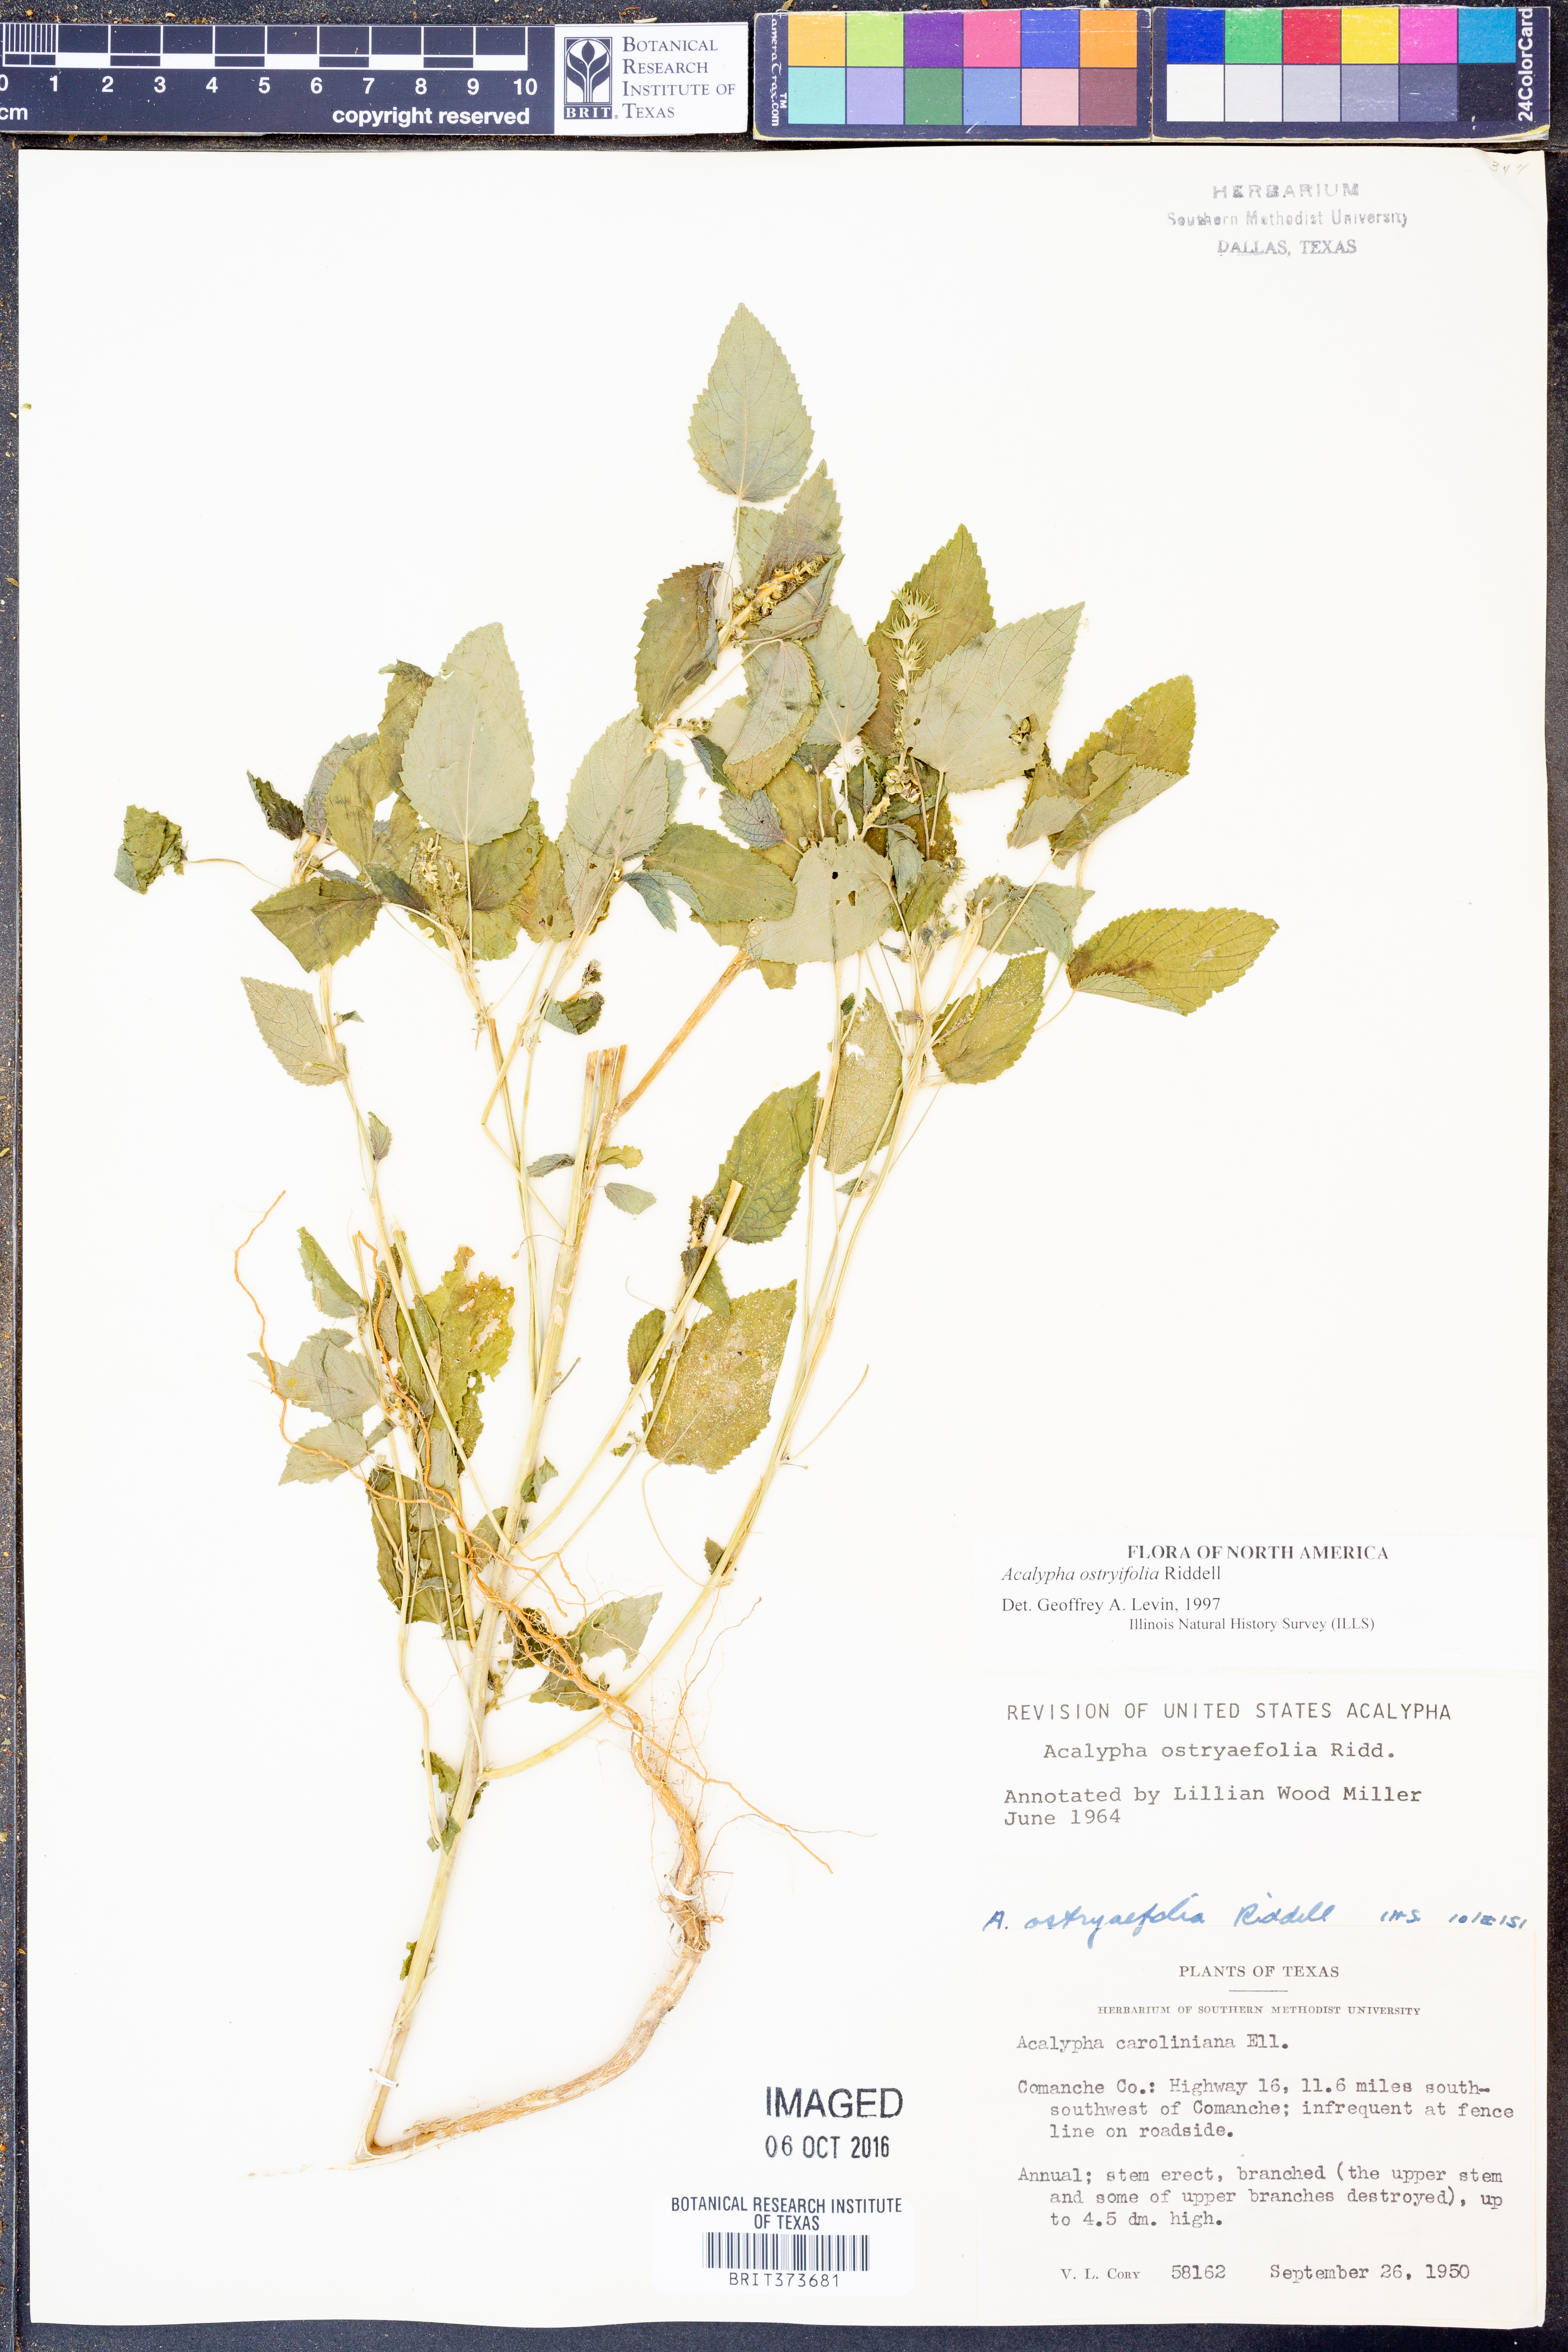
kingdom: Plantae
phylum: Tracheophyta
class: Magnoliopsida
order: Malpighiales
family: Euphorbiaceae
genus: Acalypha
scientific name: Acalypha persimilis
